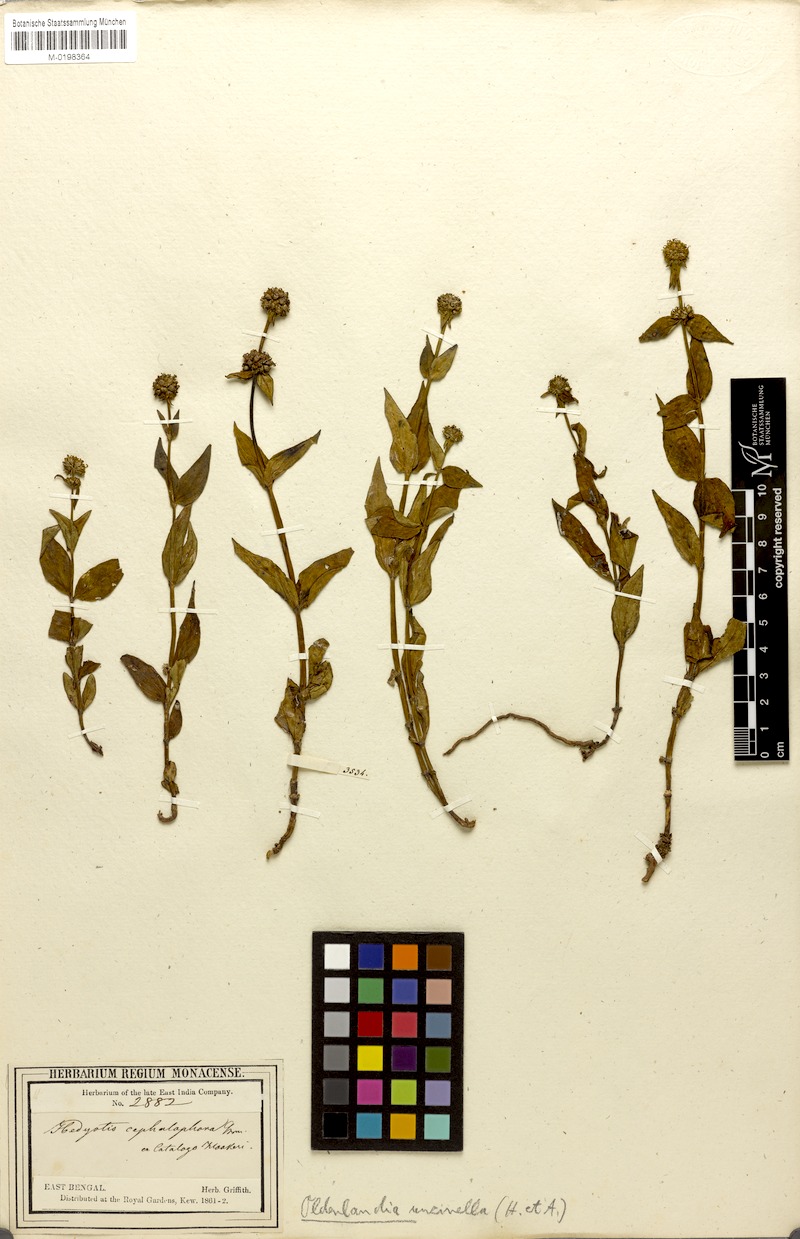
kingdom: Plantae
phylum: Tracheophyta
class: Magnoliopsida
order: Gentianales
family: Rubiaceae
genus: Hedyotis
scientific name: Hedyotis uncinella
